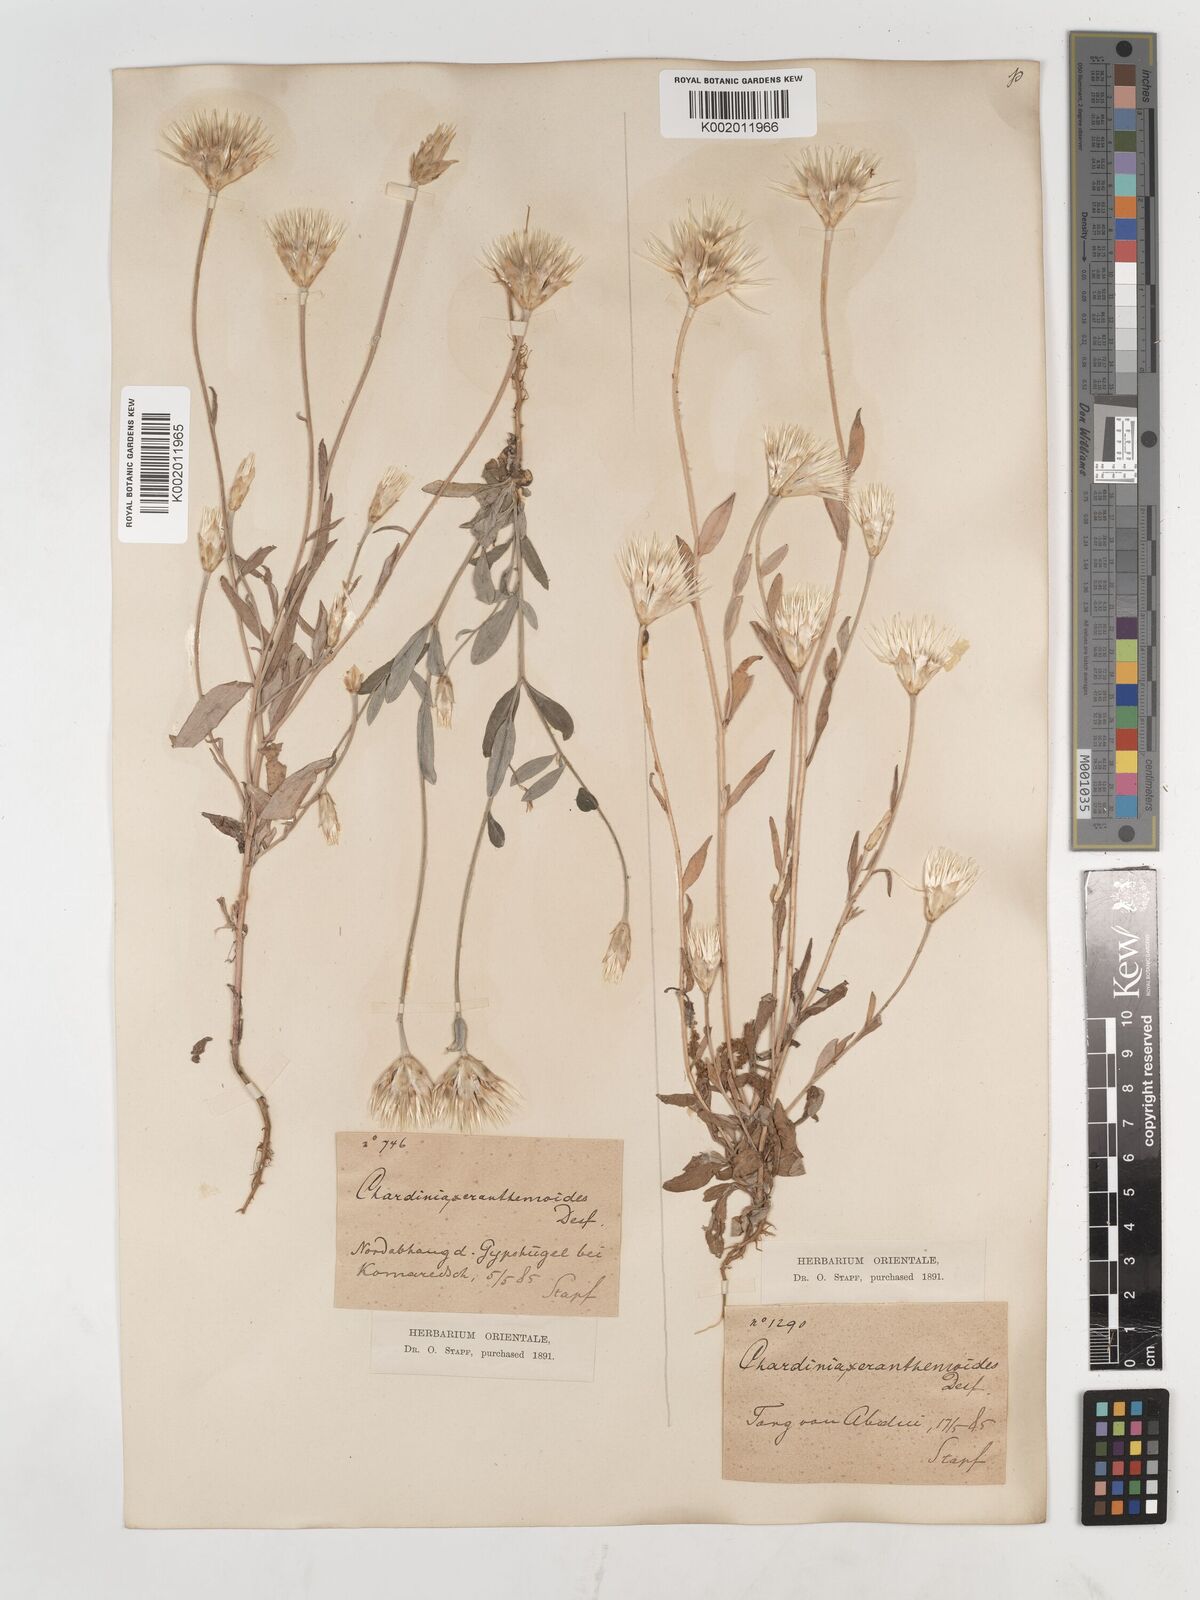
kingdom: Plantae
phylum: Tracheophyta
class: Magnoliopsida
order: Asterales
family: Asteraceae
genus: Chardinia
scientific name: Chardinia orientalis
